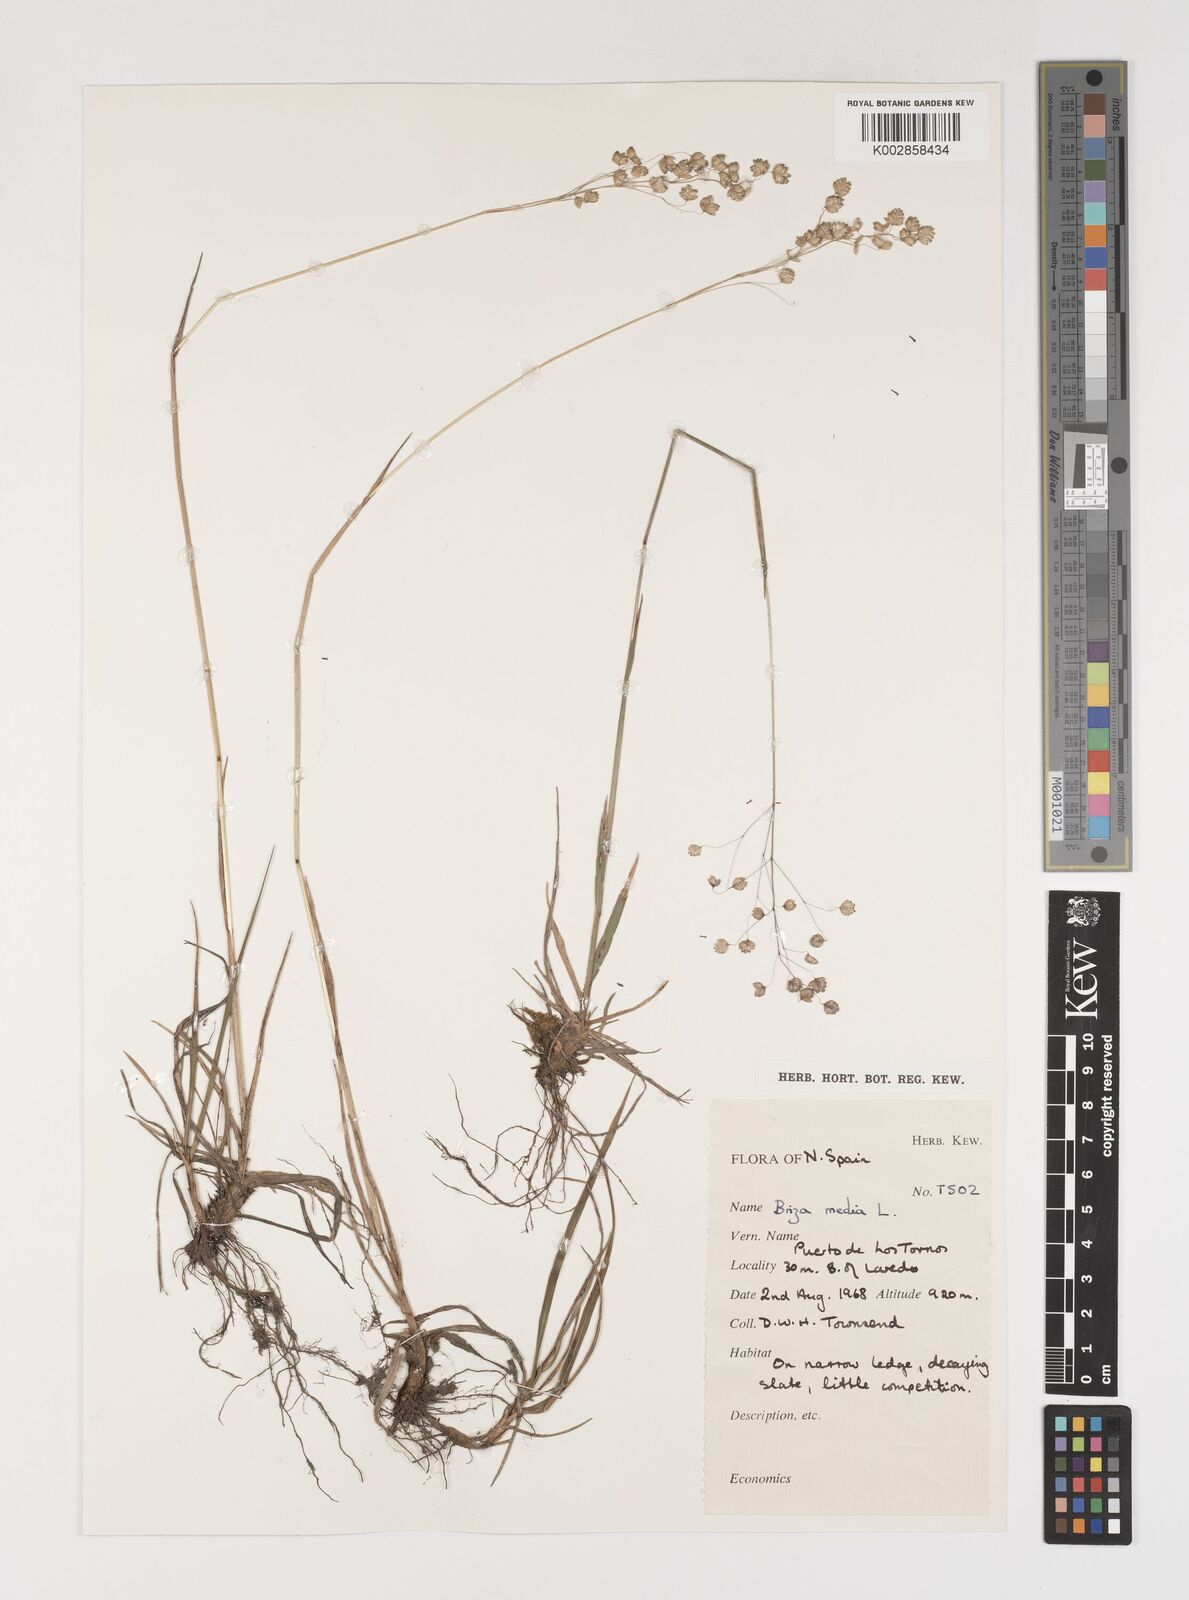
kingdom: Plantae
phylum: Tracheophyta
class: Liliopsida
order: Poales
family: Poaceae
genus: Briza
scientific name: Briza media
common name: Quaking grass
